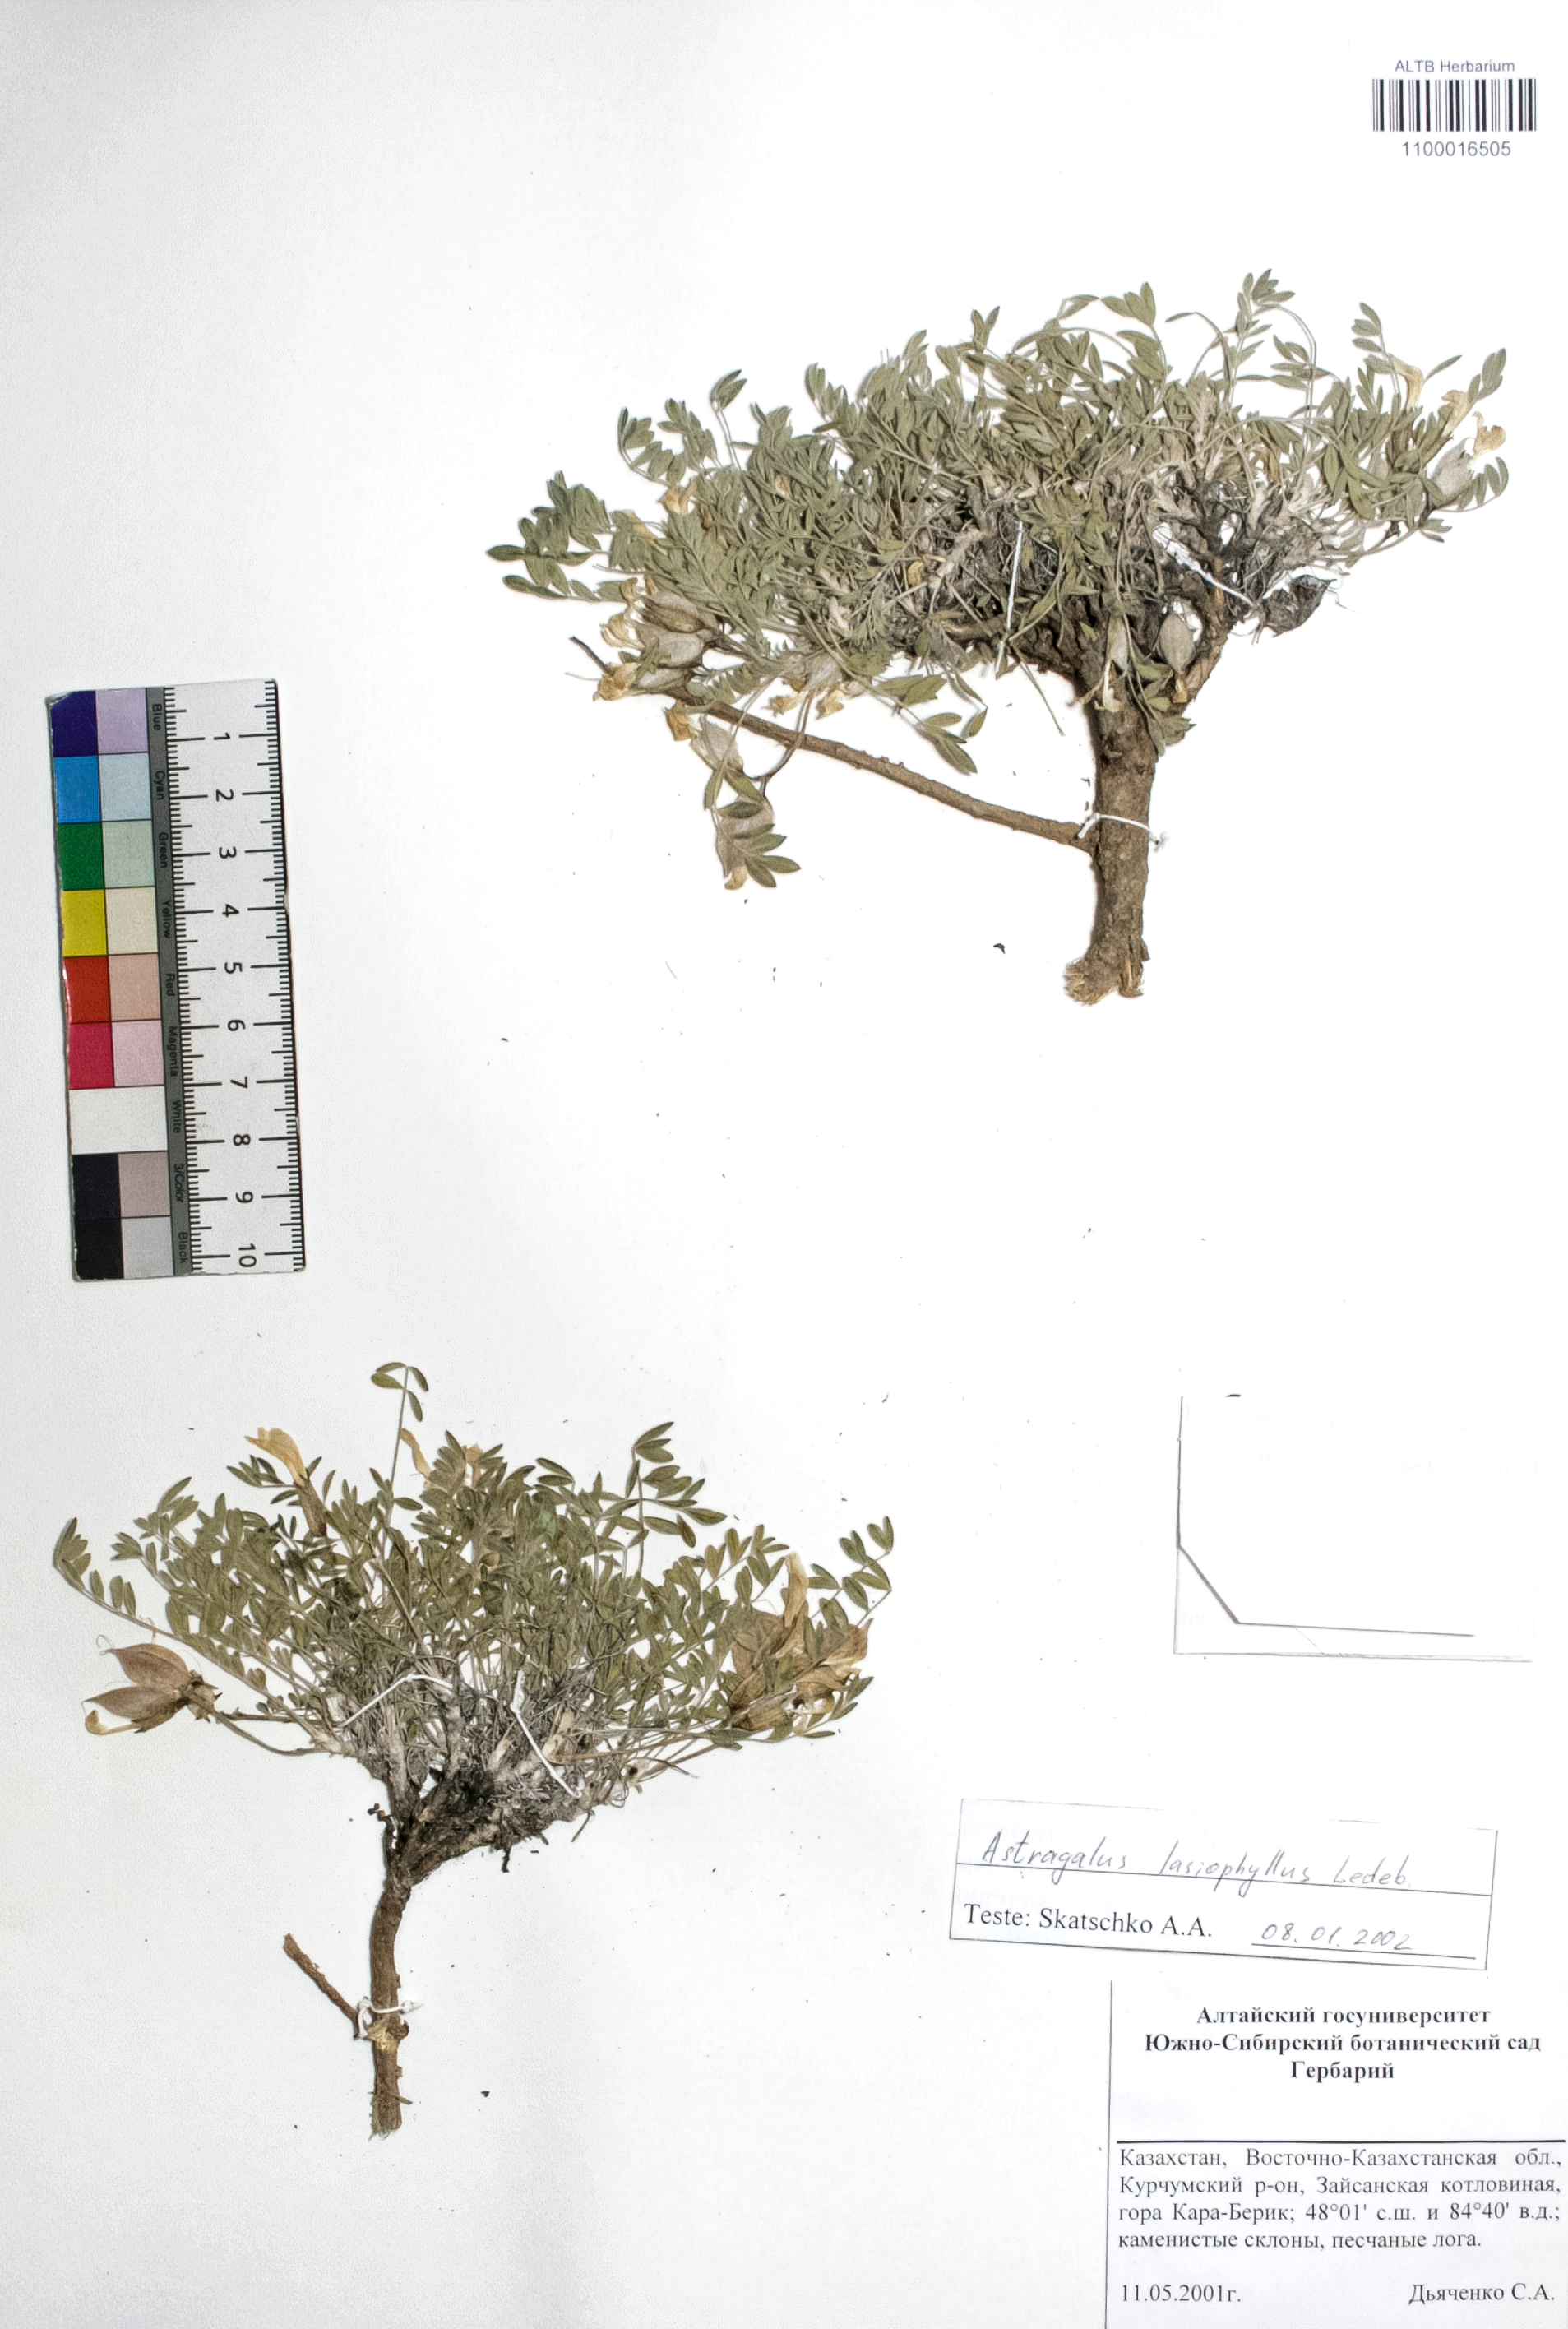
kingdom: Plantae
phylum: Tracheophyta
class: Magnoliopsida
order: Fabales
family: Fabaceae
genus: Astragalus
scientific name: Astragalus pallasii
